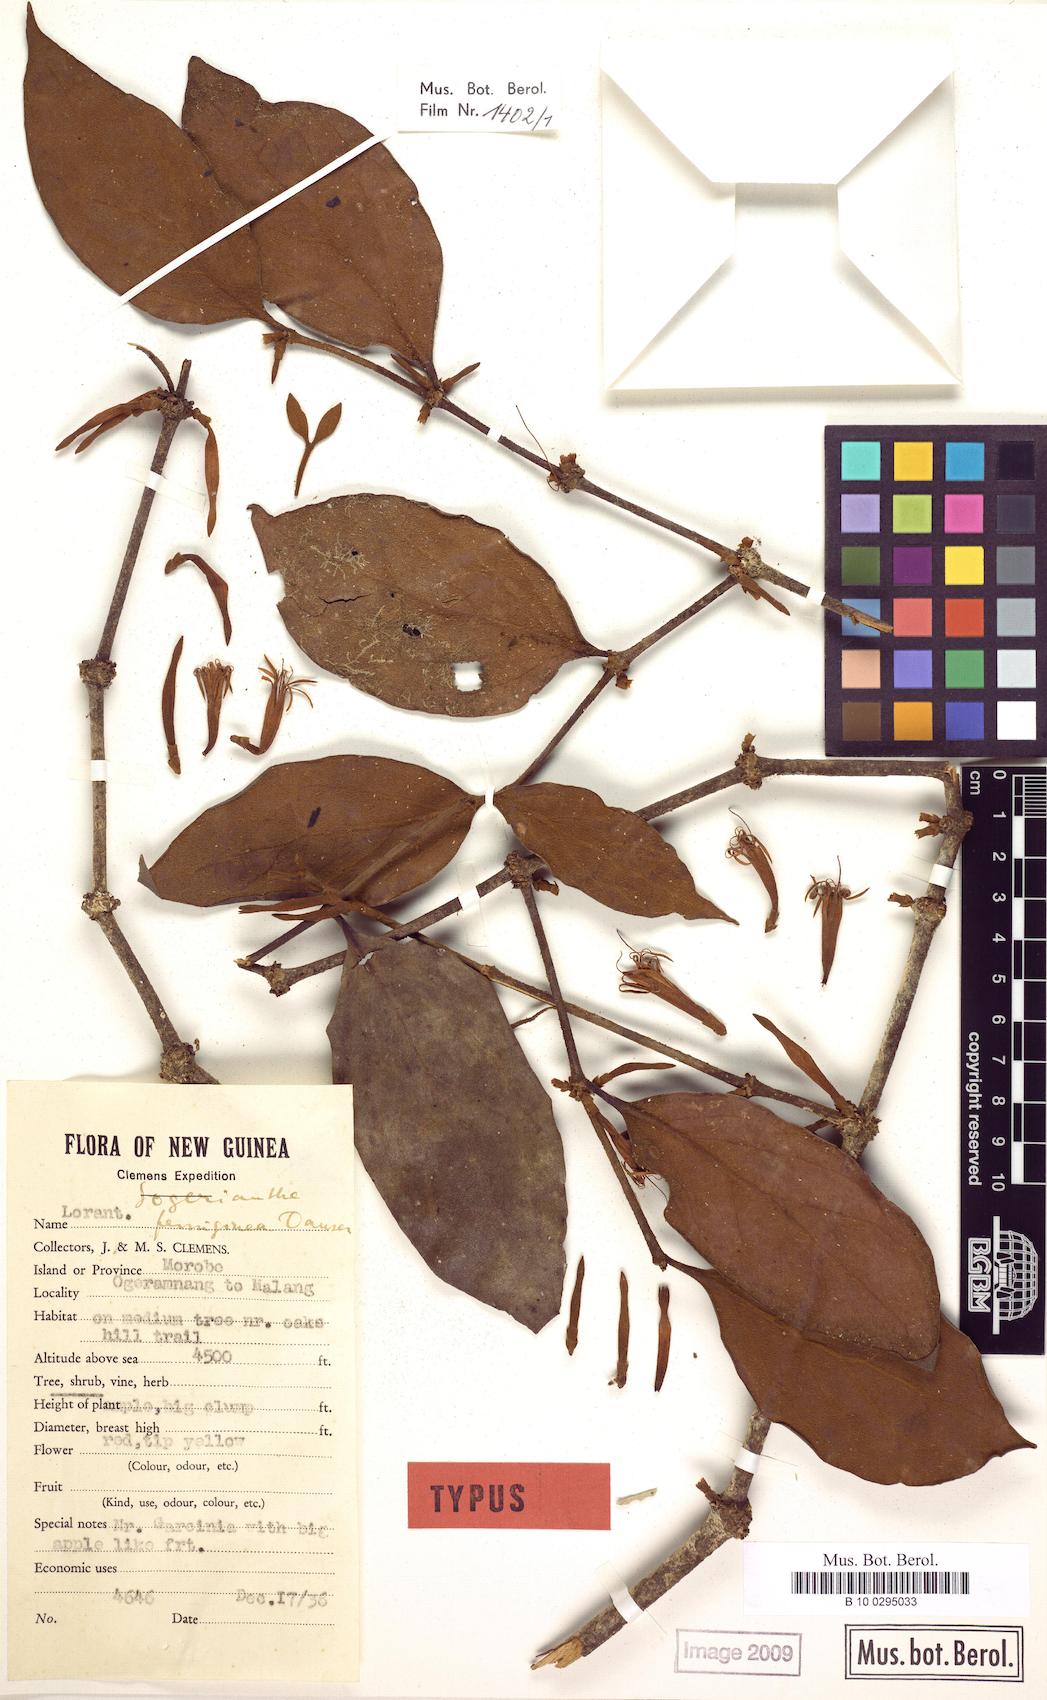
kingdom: Plantae
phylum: Tracheophyta
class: Magnoliopsida
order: Santalales
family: Loranthaceae
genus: Sogerianthe
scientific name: Sogerianthe sessiliflora
